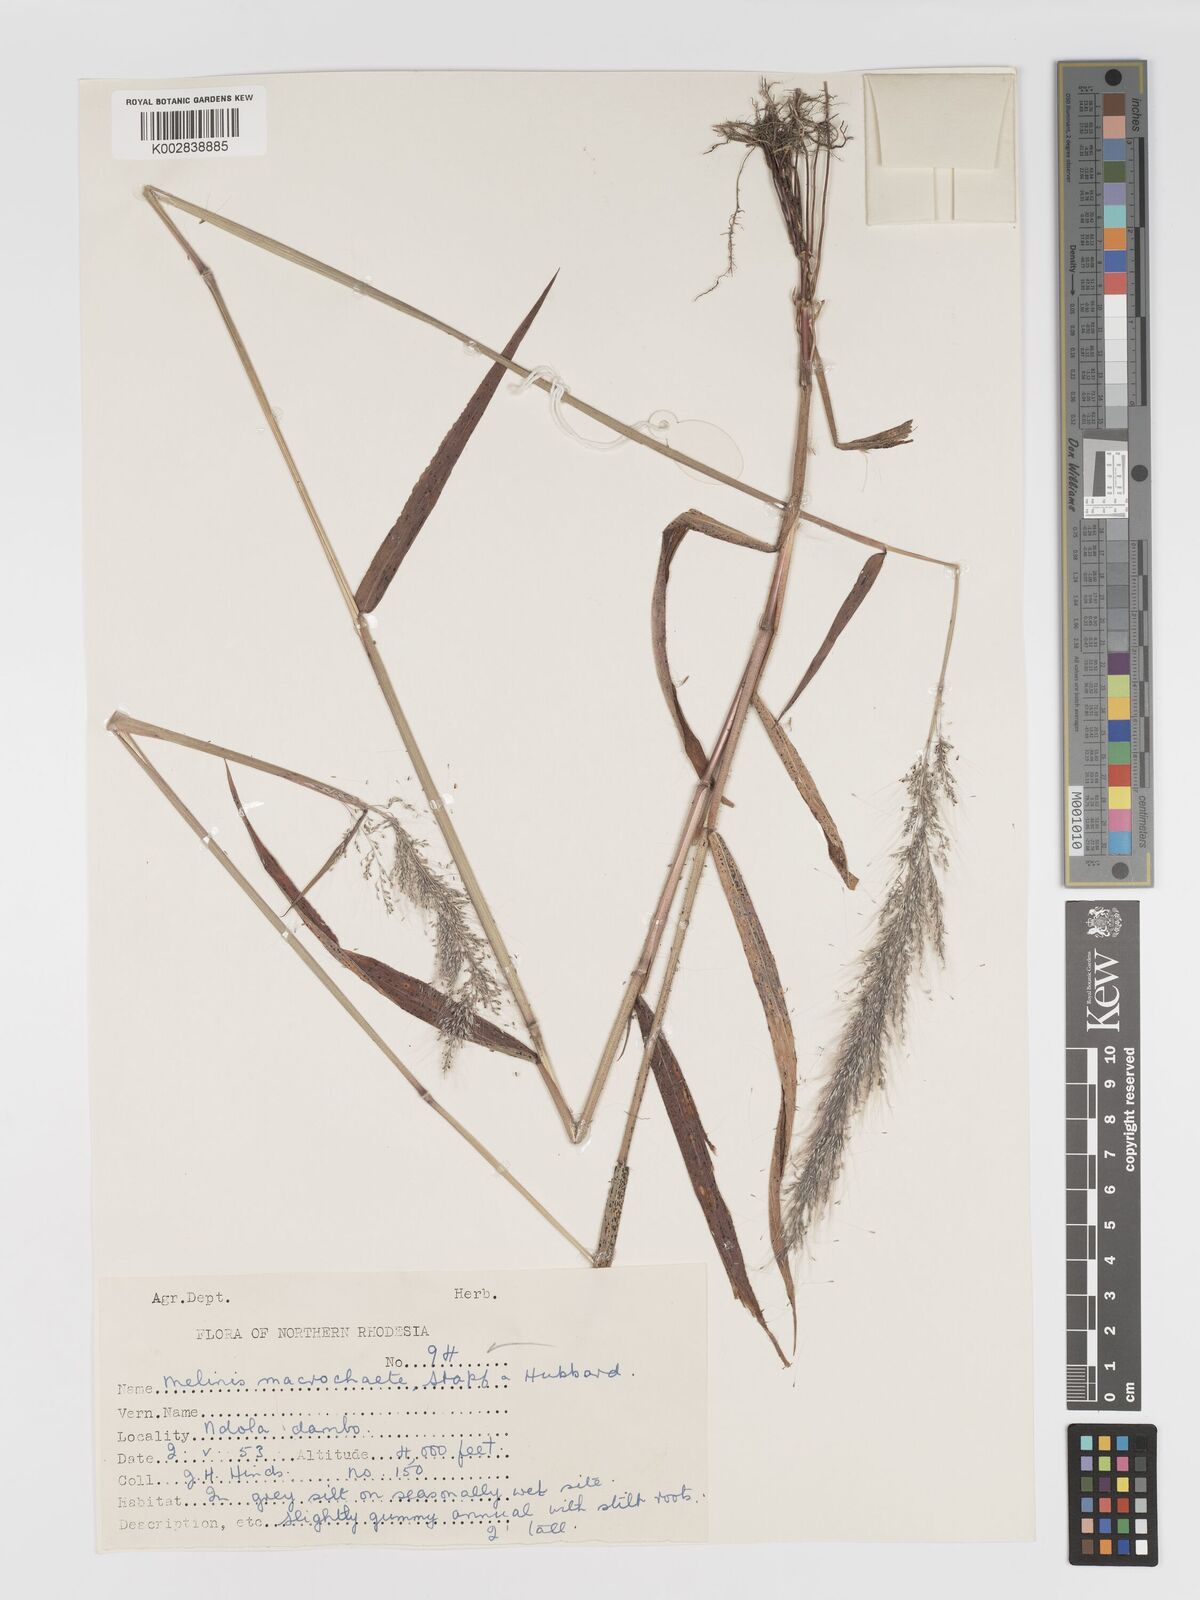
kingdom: Plantae
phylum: Tracheophyta
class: Liliopsida
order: Poales
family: Poaceae
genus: Melinis
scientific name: Melinis macrochaeta
